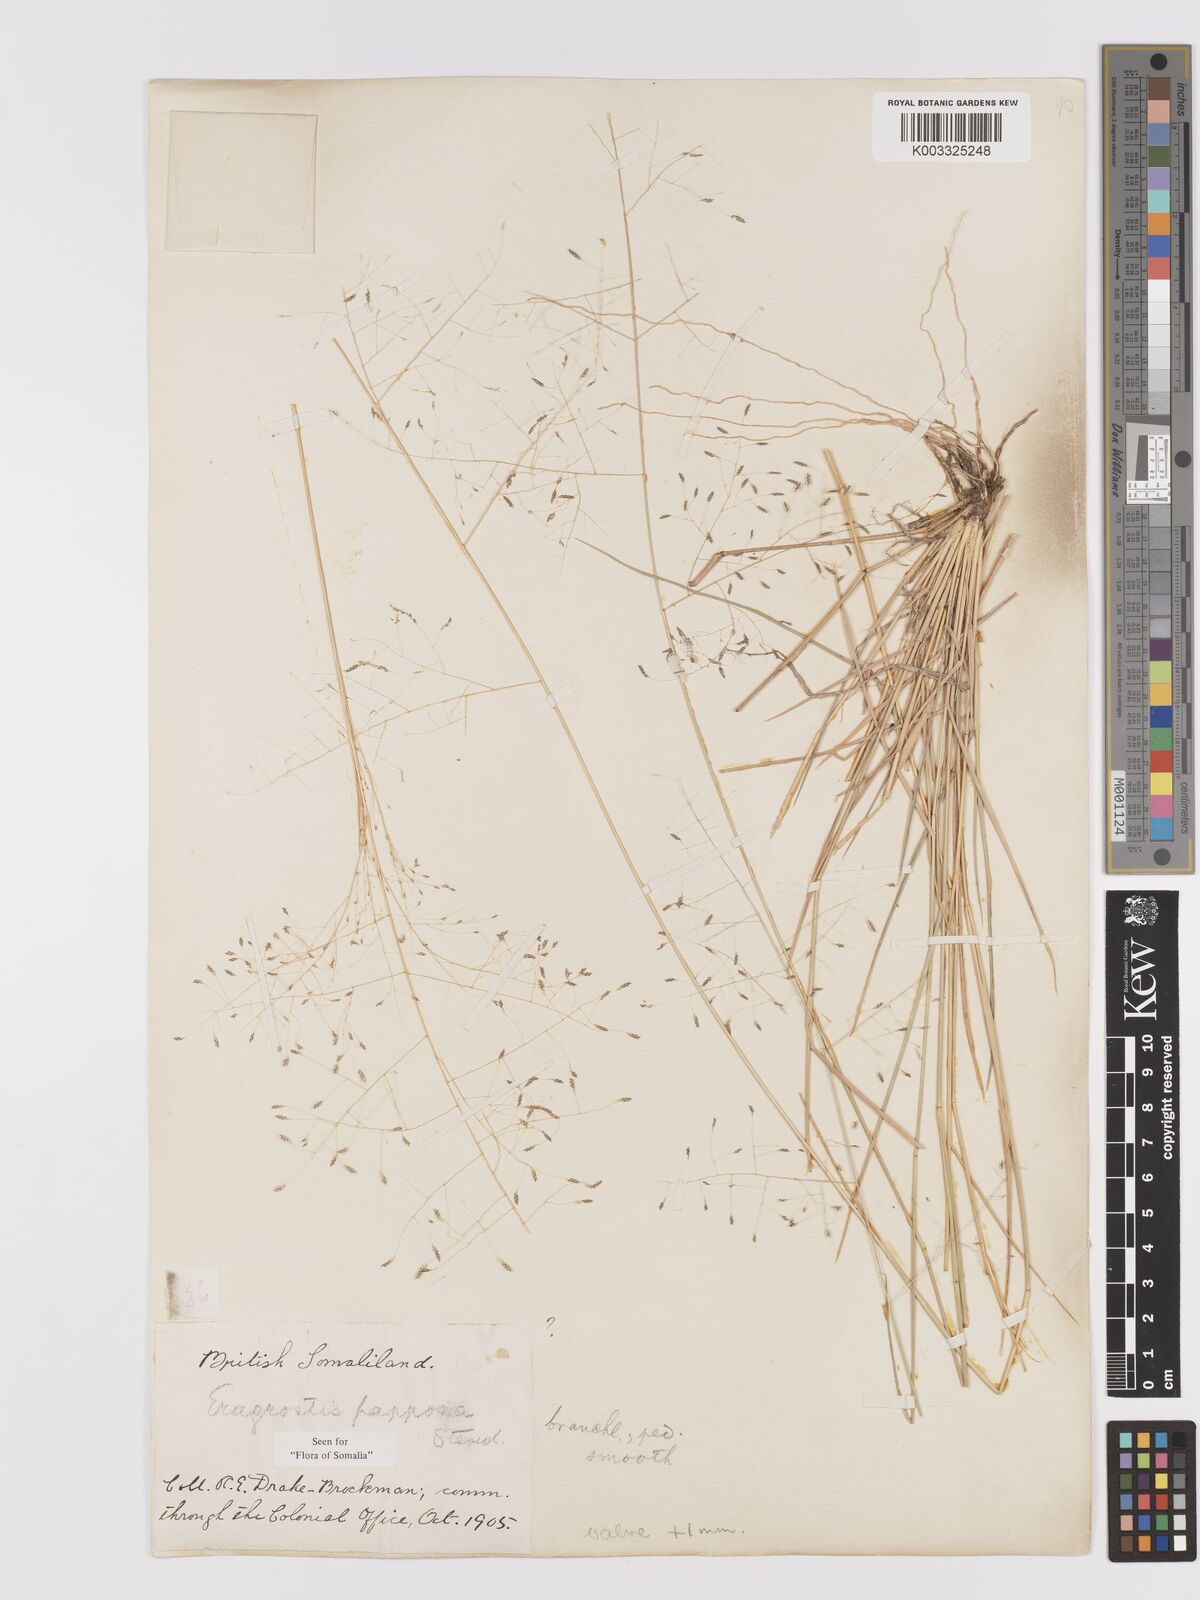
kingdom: Plantae
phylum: Tracheophyta
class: Liliopsida
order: Poales
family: Poaceae
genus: Eragrostis
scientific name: Eragrostis papposa
